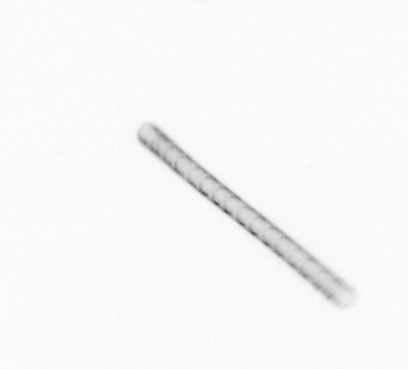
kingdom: Chromista
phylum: Ochrophyta
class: Bacillariophyceae
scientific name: Bacillariophyceae
